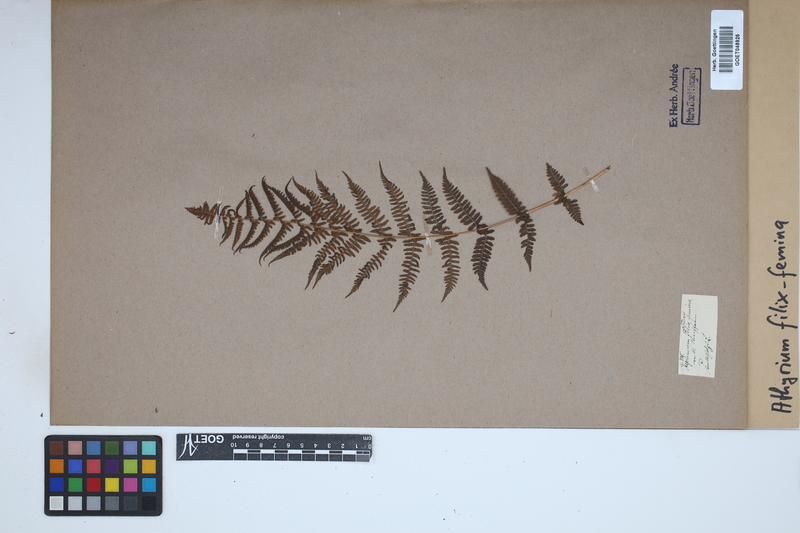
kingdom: Plantae
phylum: Tracheophyta
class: Polypodiopsida
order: Polypodiales
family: Athyriaceae
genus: Athyrium
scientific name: Athyrium filix-femina
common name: Lady fern
